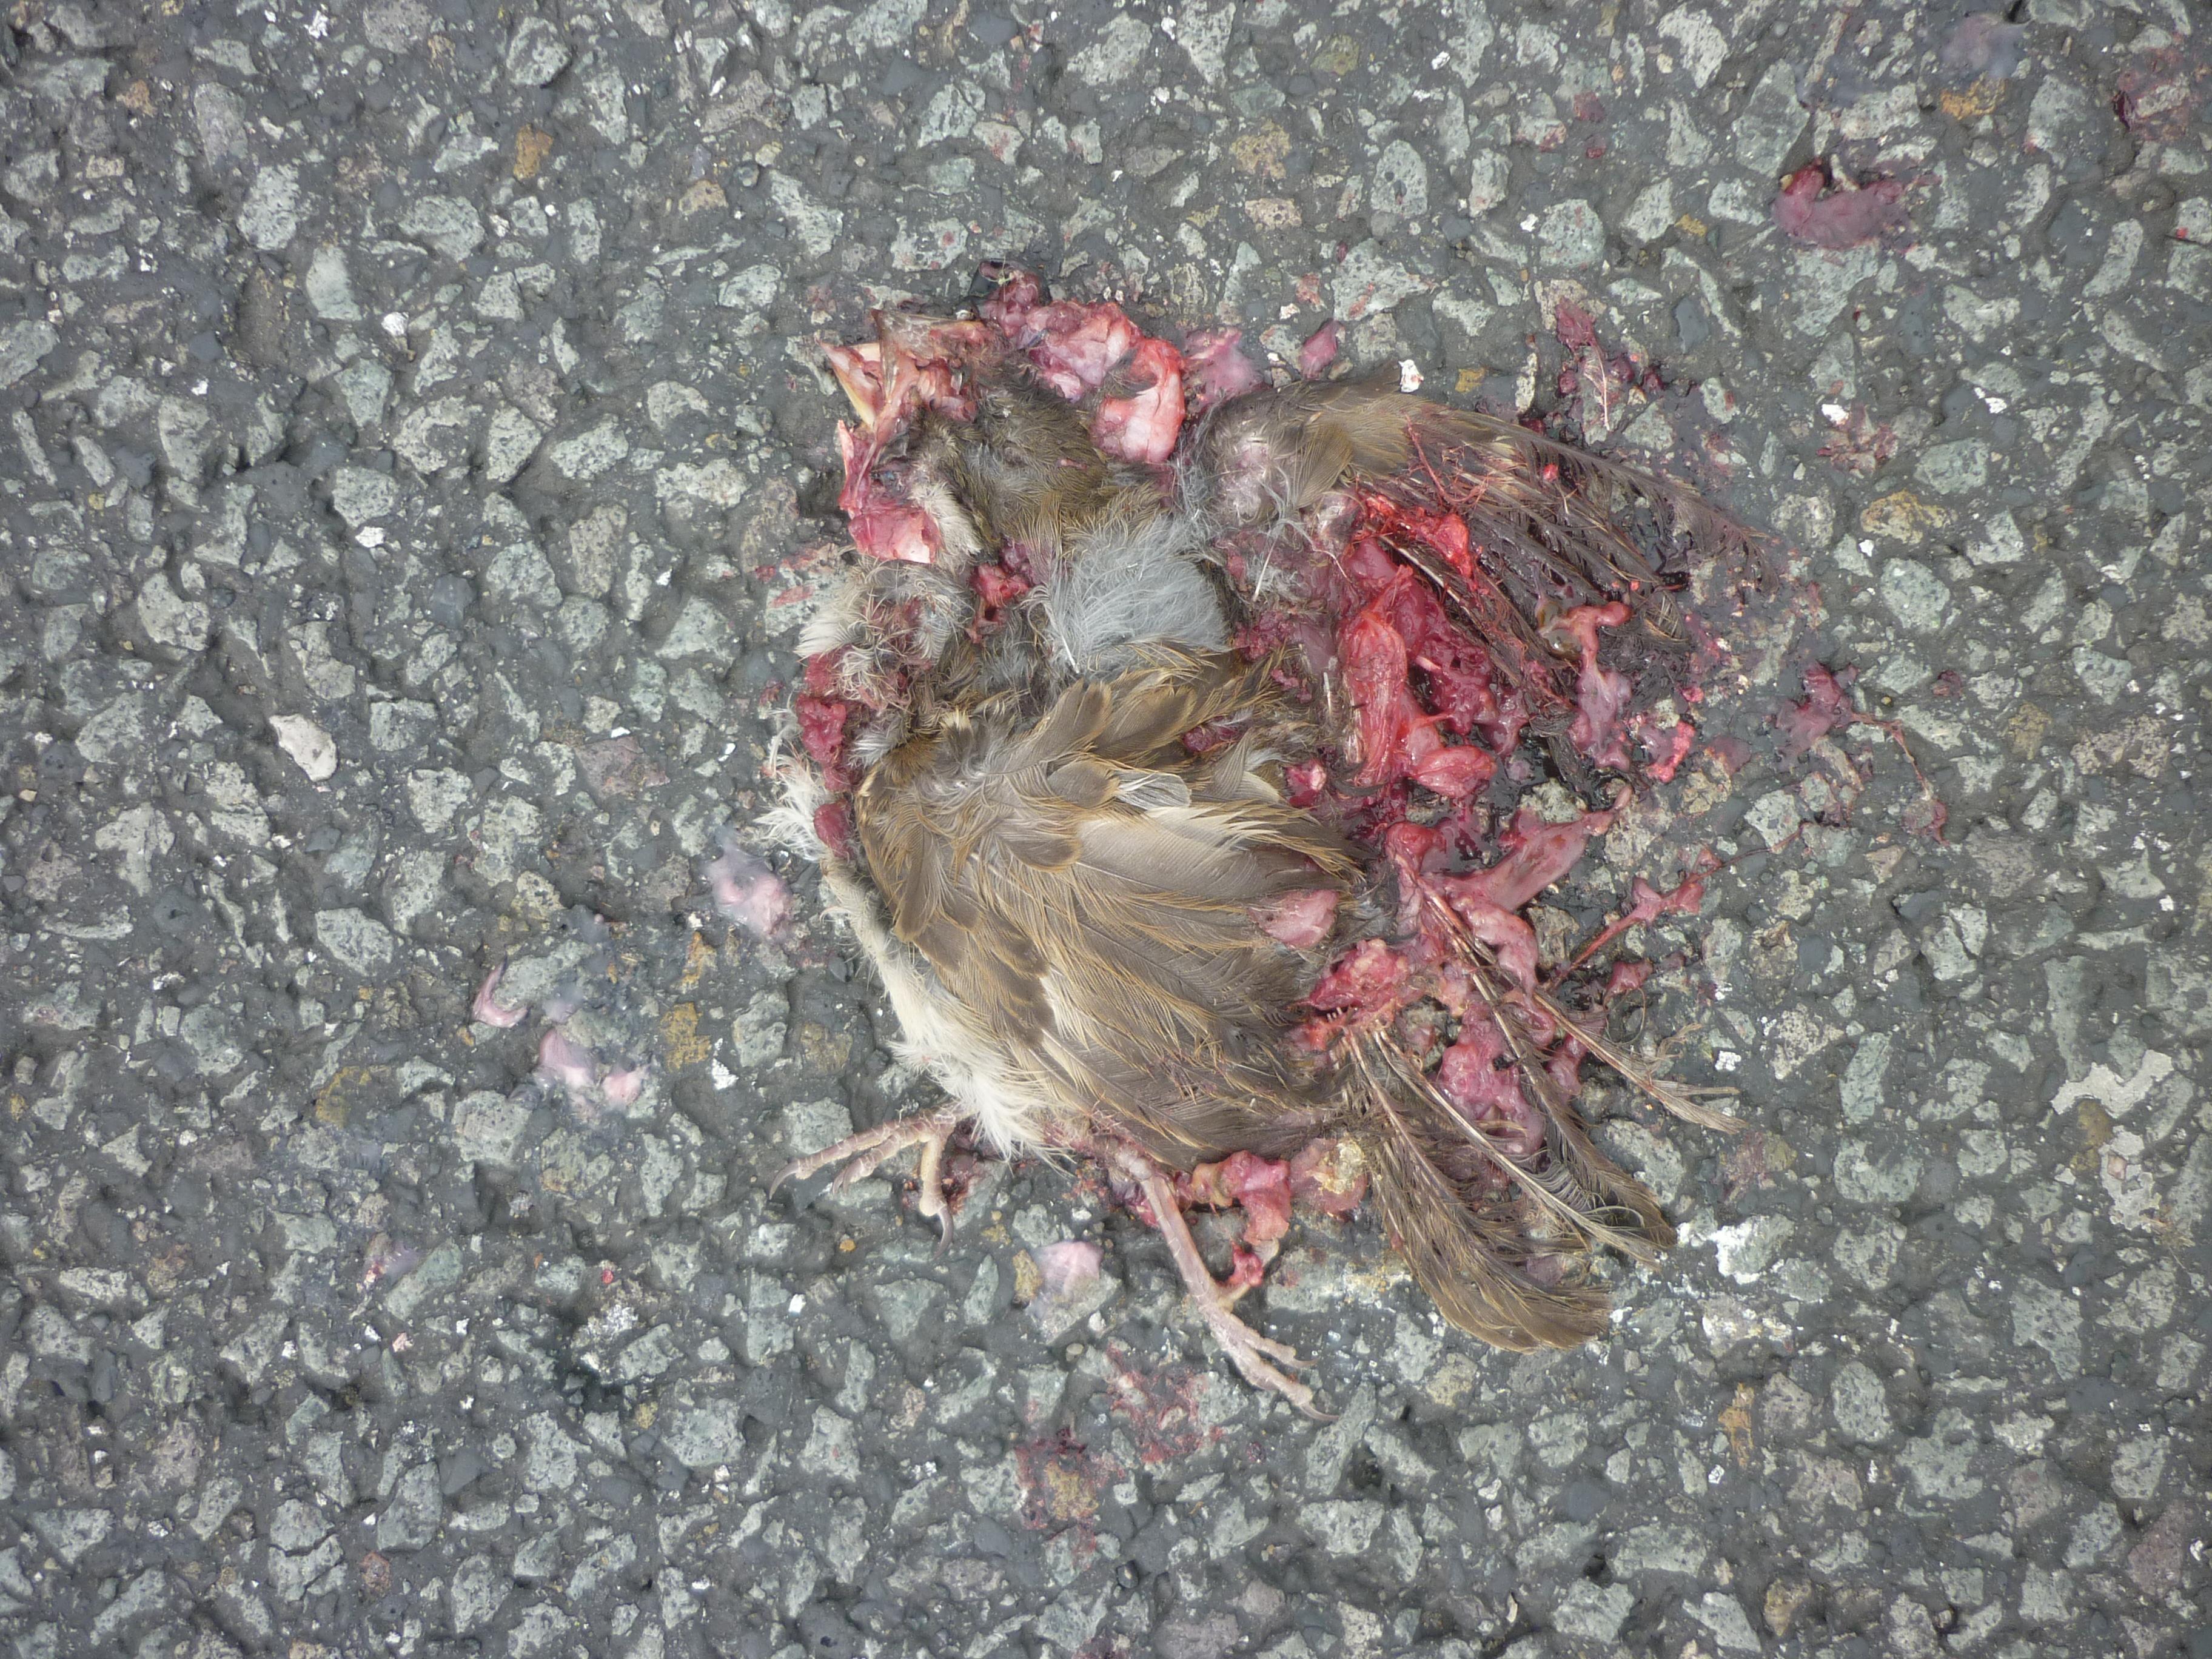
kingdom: Animalia
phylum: Chordata
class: Aves
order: Passeriformes
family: Passeridae
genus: Passer
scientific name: Passer domesticus
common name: House sparrow
